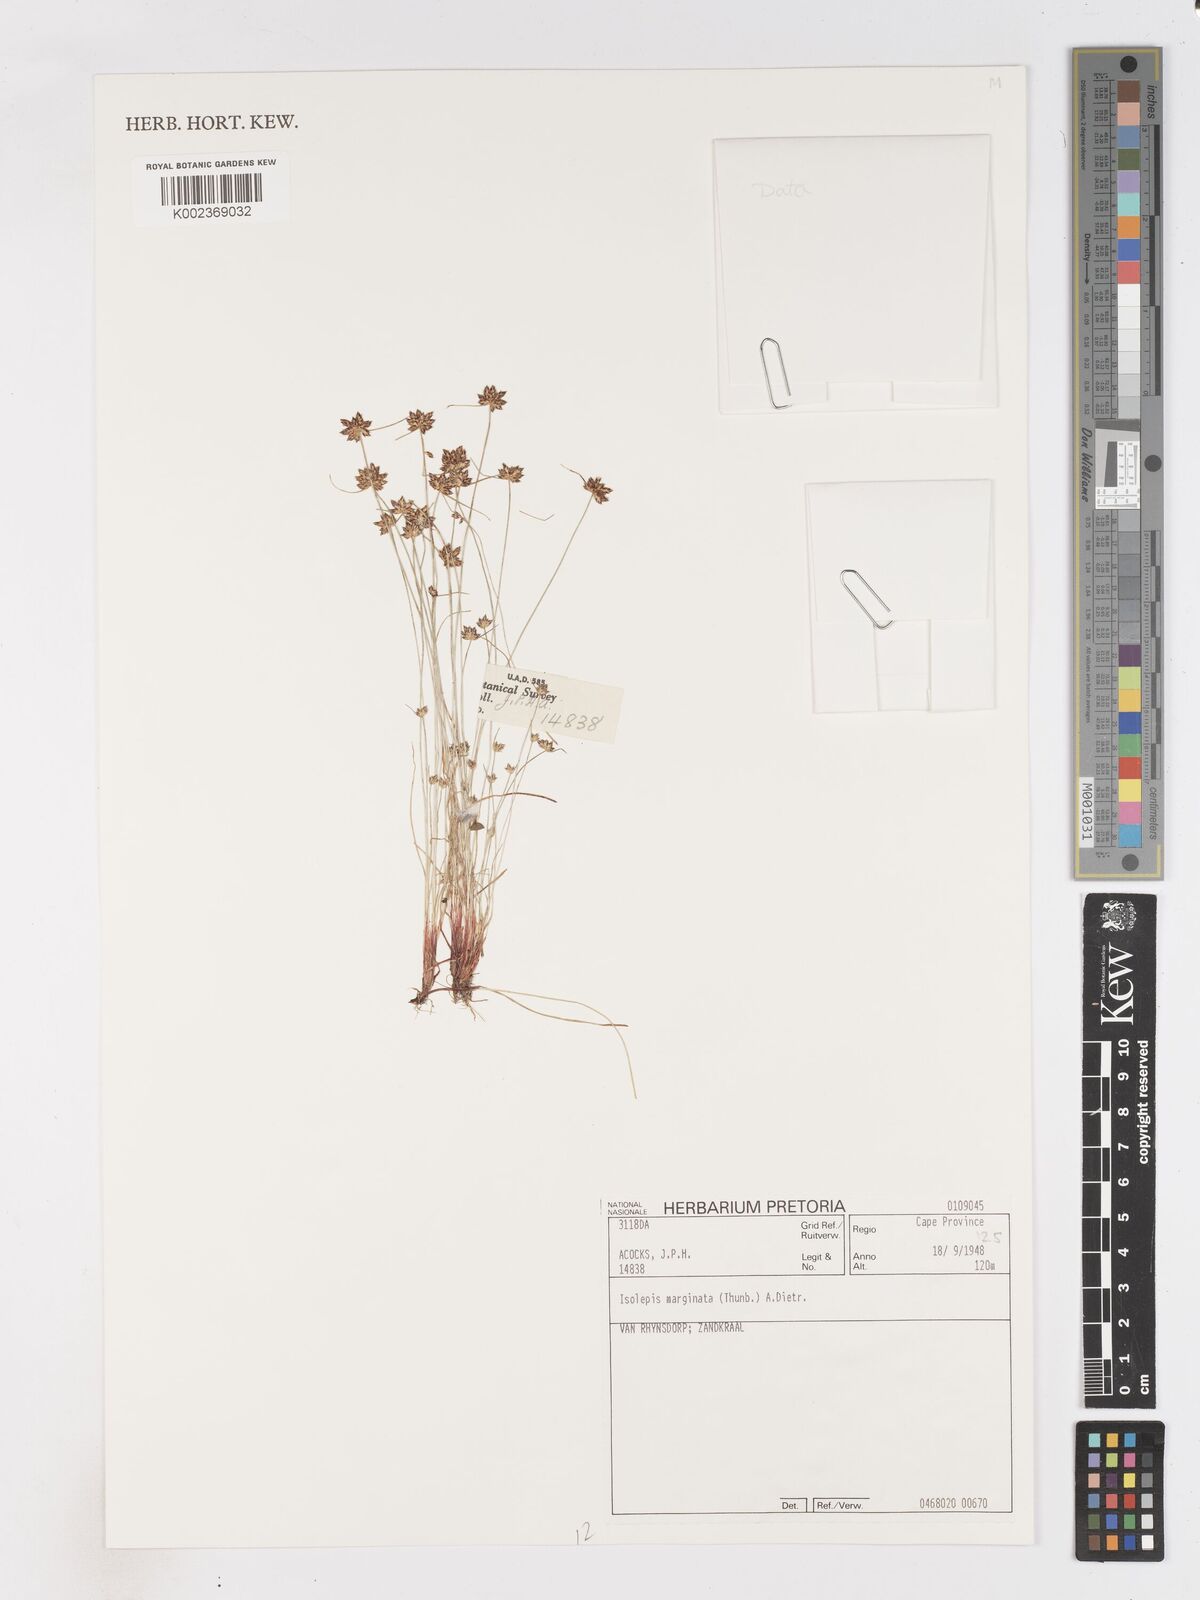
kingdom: Plantae
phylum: Tracheophyta
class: Liliopsida
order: Poales
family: Cyperaceae
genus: Isolepis
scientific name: Isolepis diabolica
